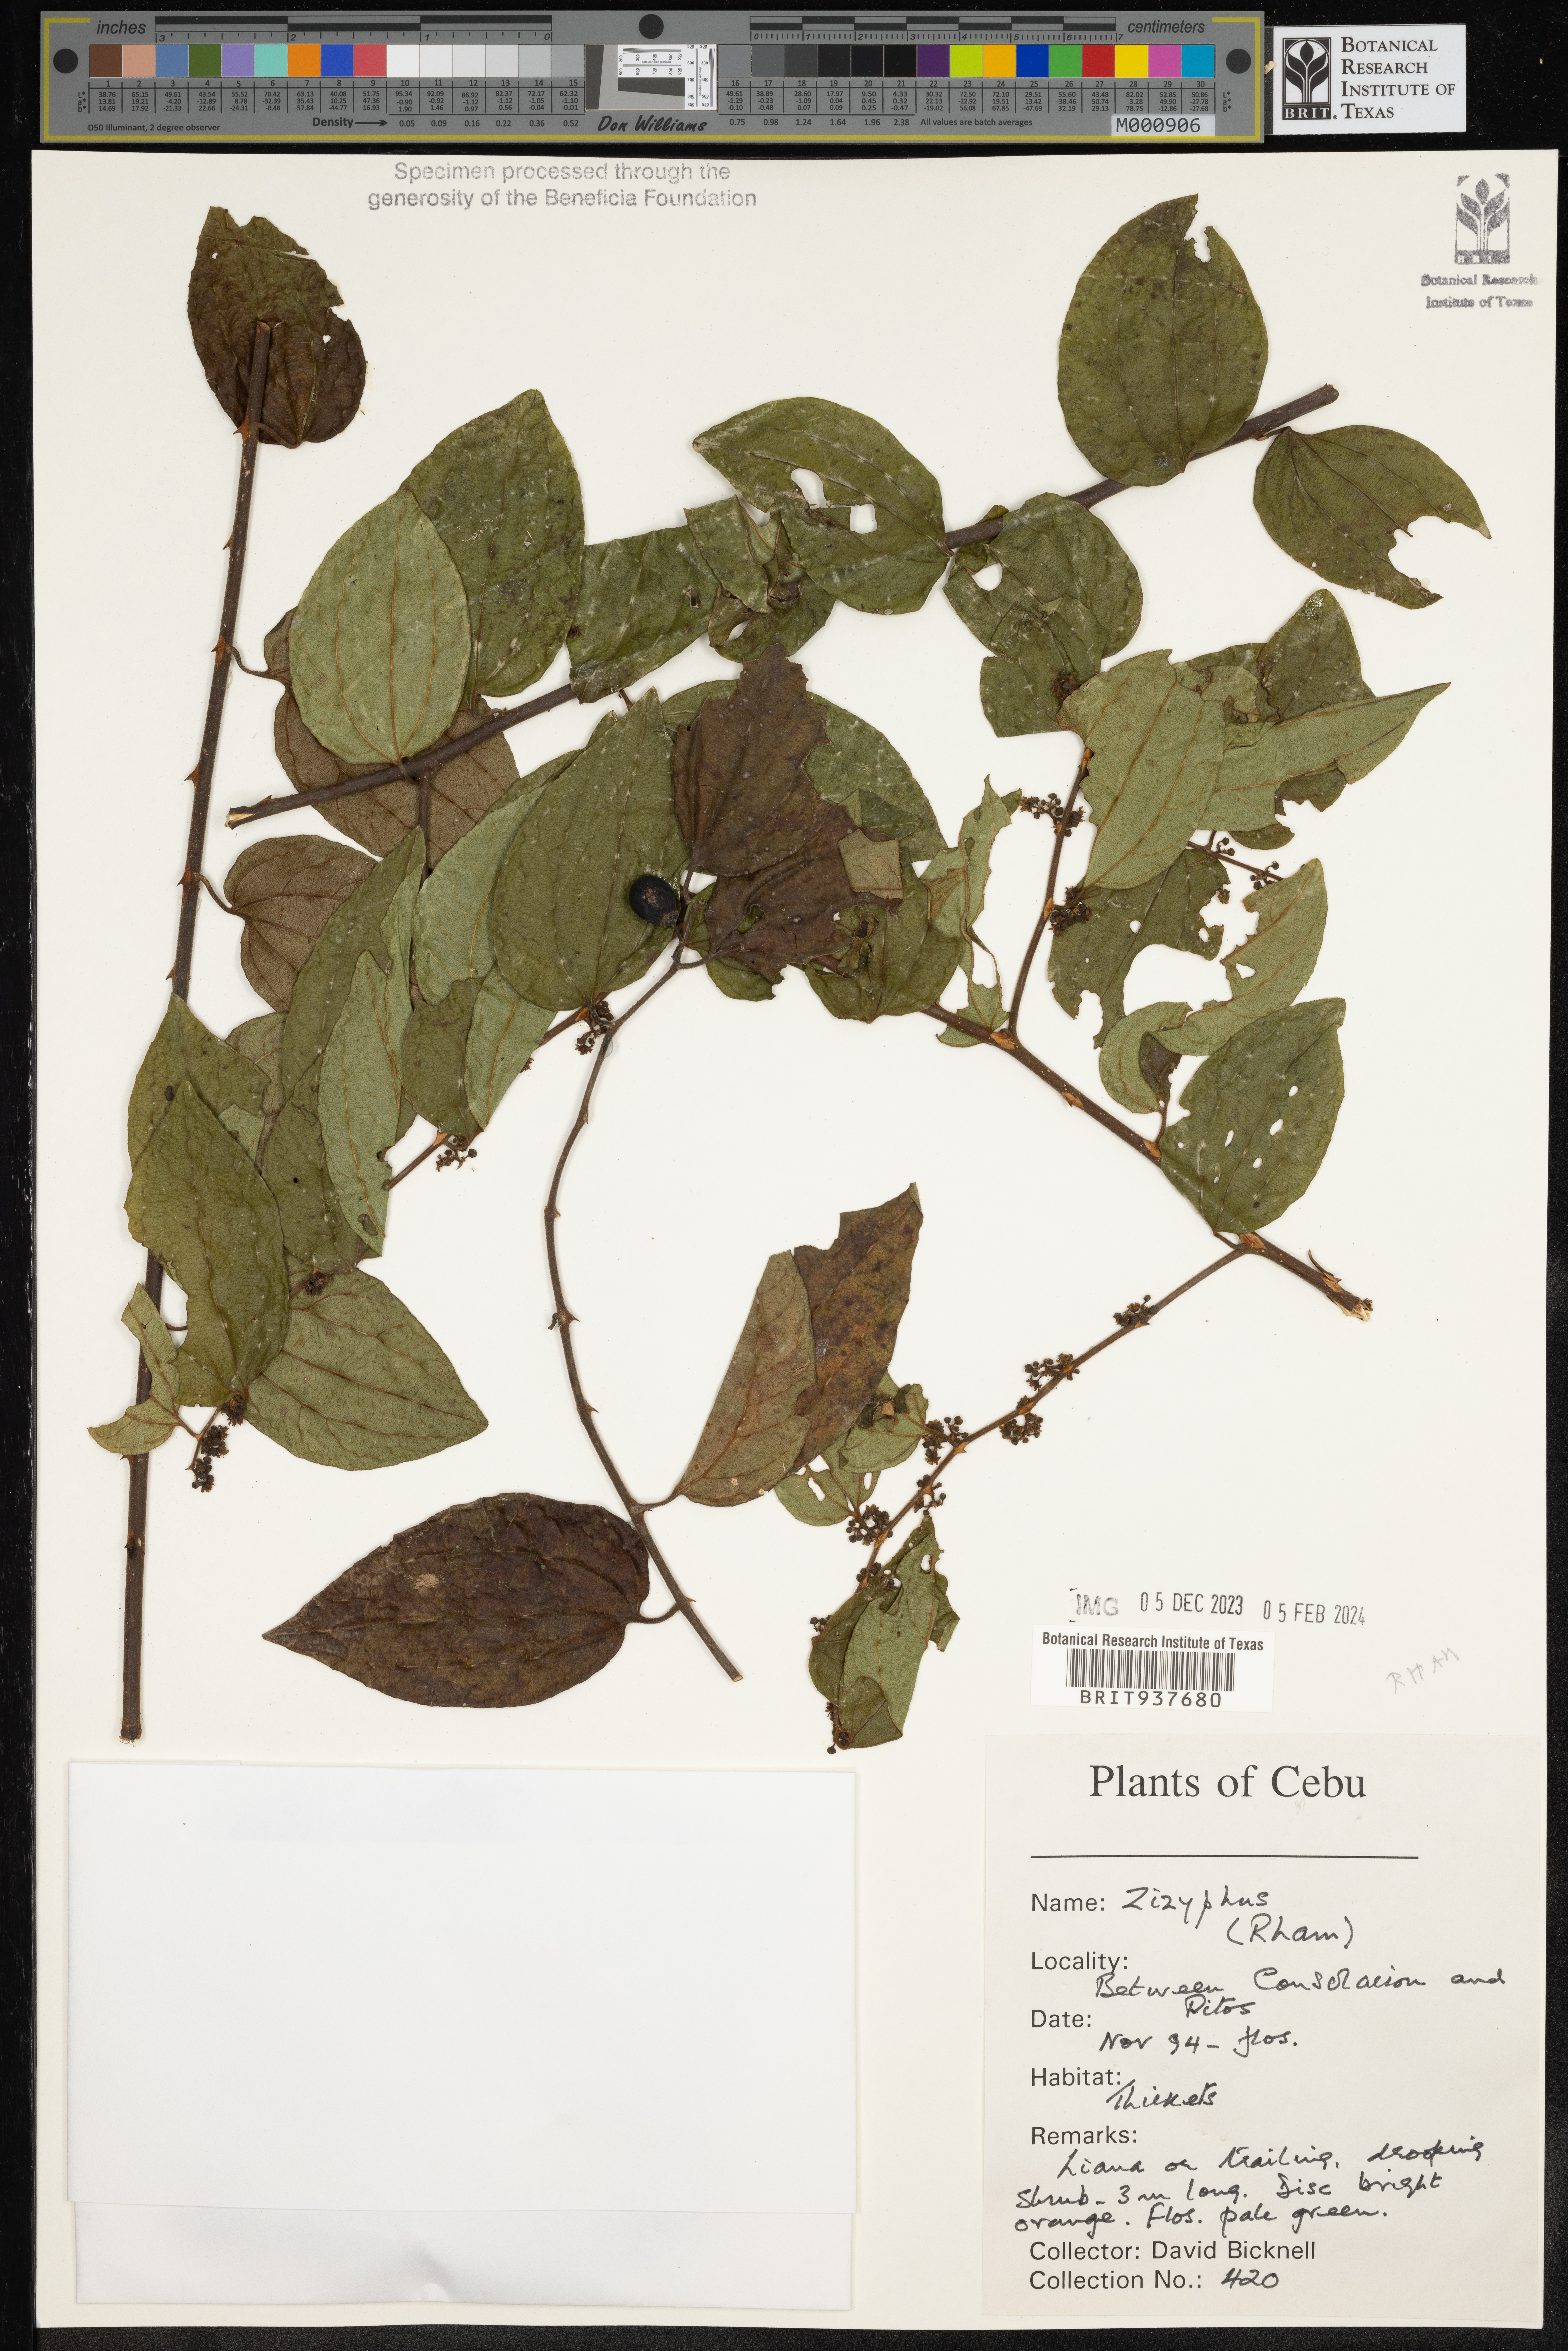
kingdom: Plantae
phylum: Tracheophyta
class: Magnoliopsida
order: Rosales
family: Rhamnaceae
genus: Ziziphus
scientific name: Ziziphus
